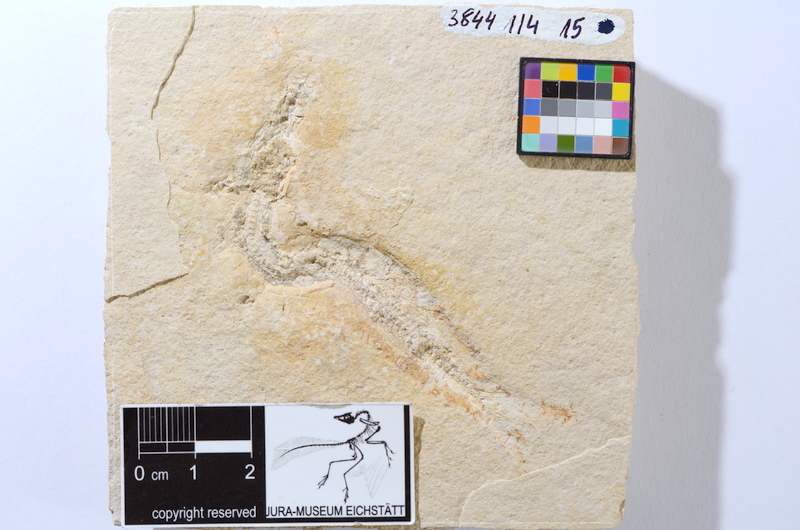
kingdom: Animalia
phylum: Chordata
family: Ascalaboidae
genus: Tharsis
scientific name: Tharsis dubius
